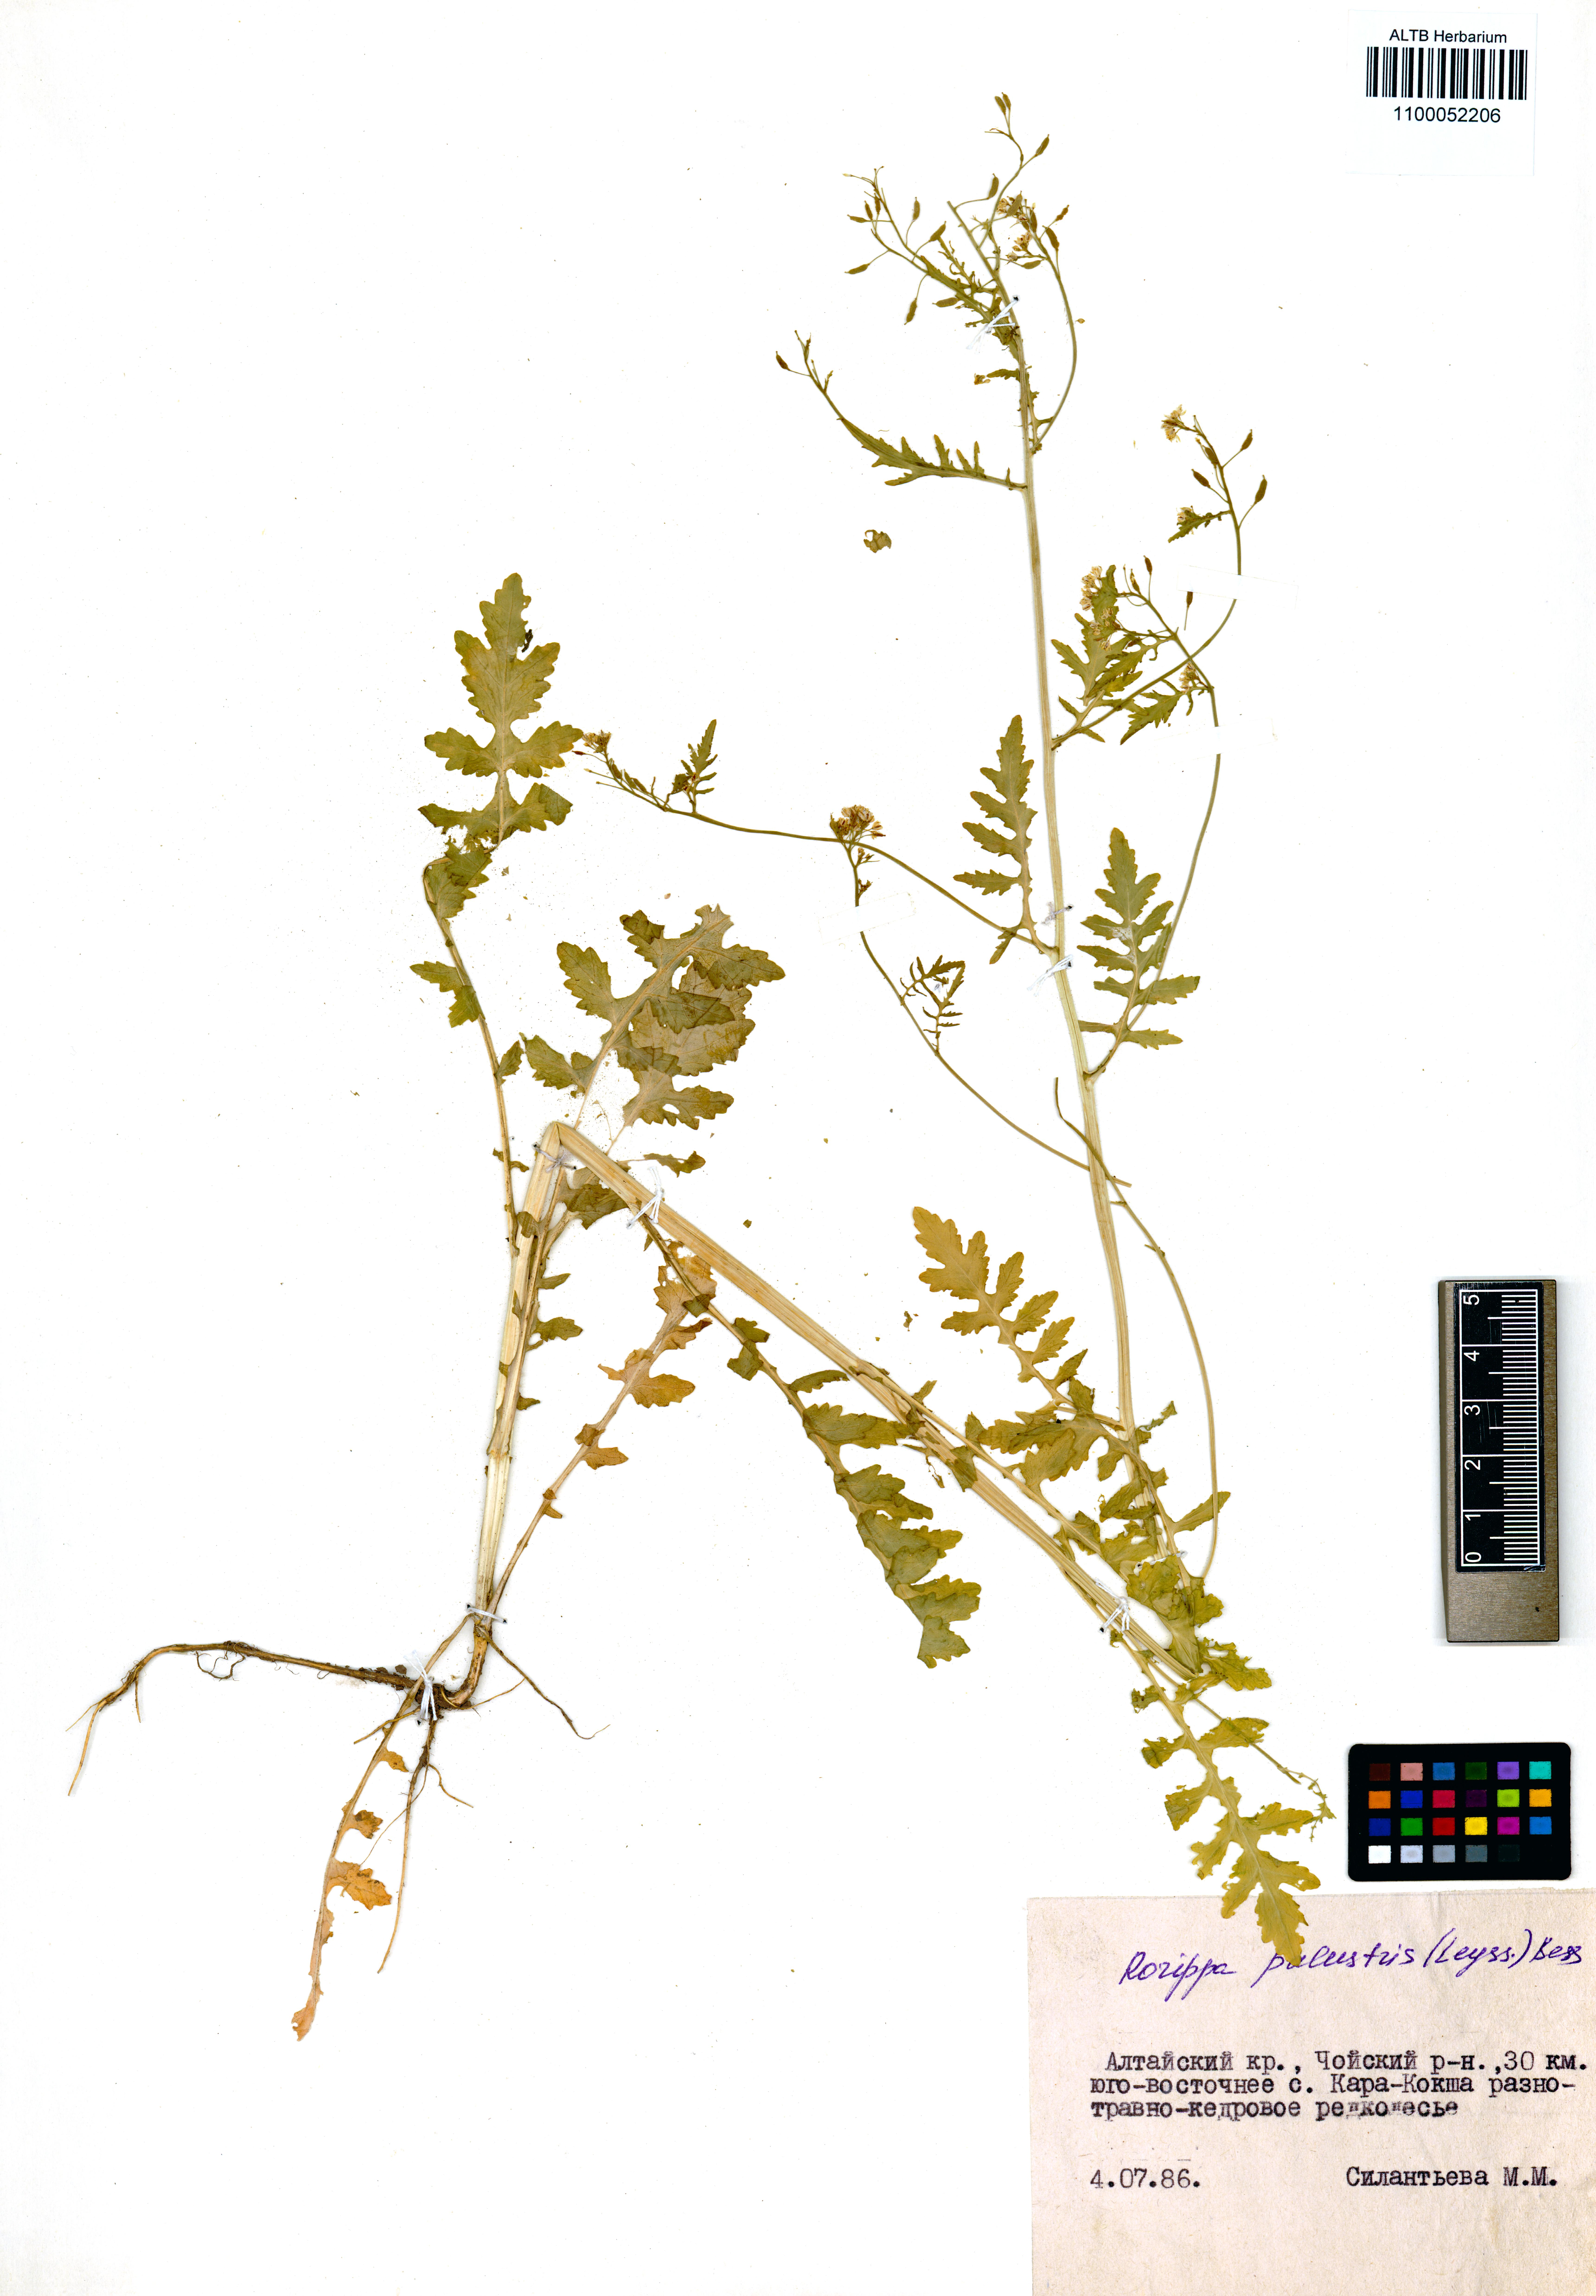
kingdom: Plantae
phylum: Tracheophyta
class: Magnoliopsida
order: Brassicales
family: Brassicaceae
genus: Rorippa
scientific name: Rorippa palustris
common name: Marsh yellow-cress
